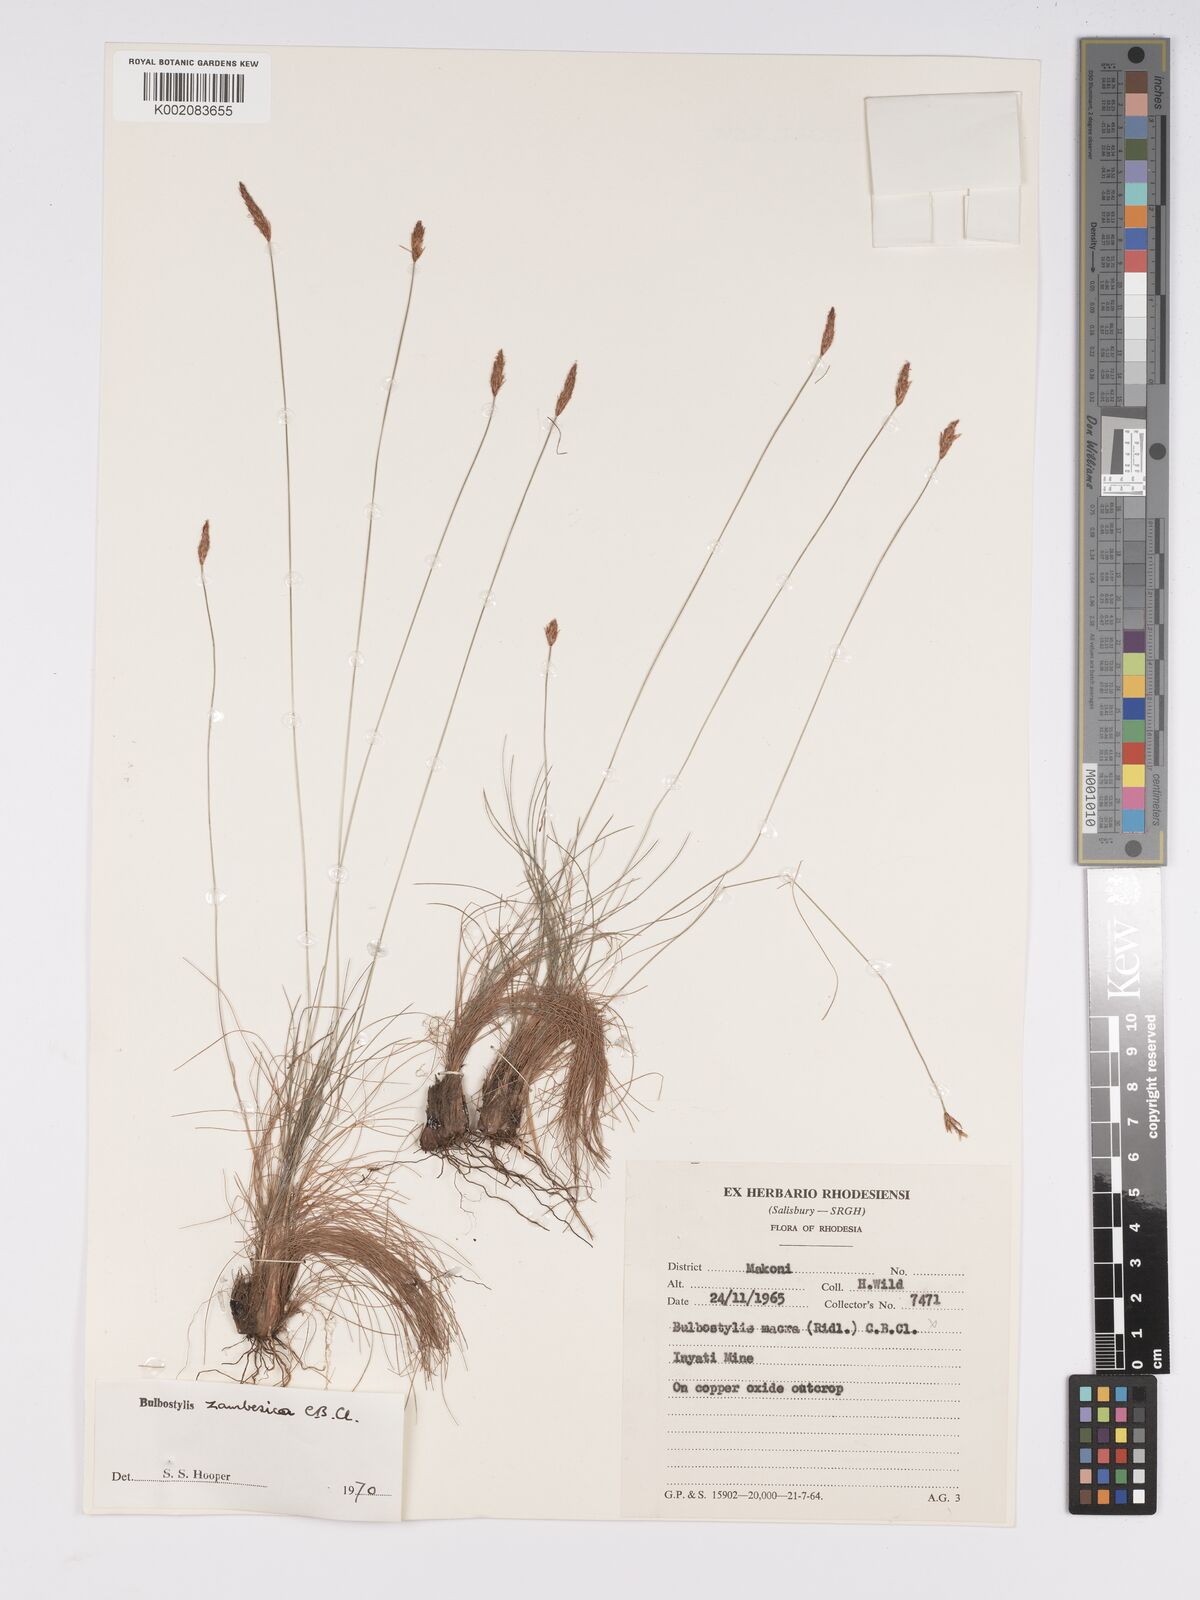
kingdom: Plantae
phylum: Tracheophyta
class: Liliopsida
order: Poales
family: Cyperaceae
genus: Bulbostylis
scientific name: Bulbostylis macra
